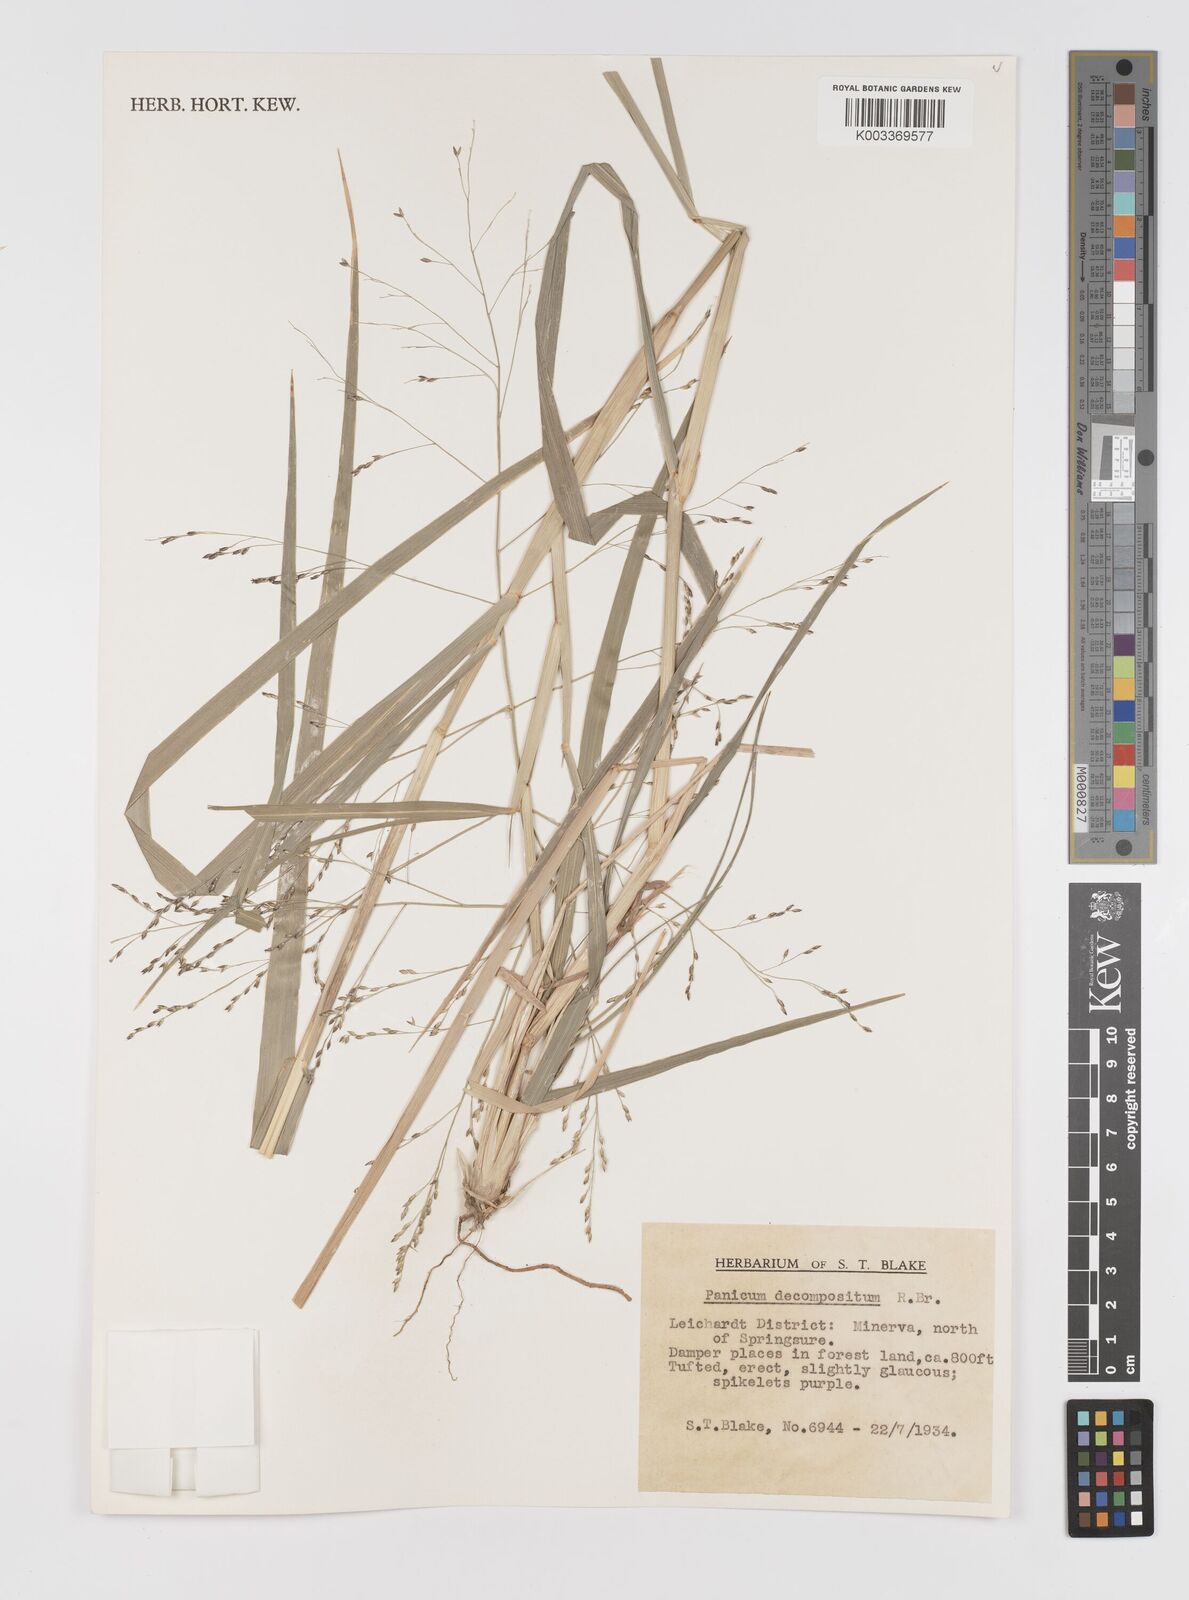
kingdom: Plantae
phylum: Tracheophyta
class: Liliopsida
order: Poales
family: Poaceae
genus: Panicum
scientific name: Panicum decompositum
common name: Australian millet
